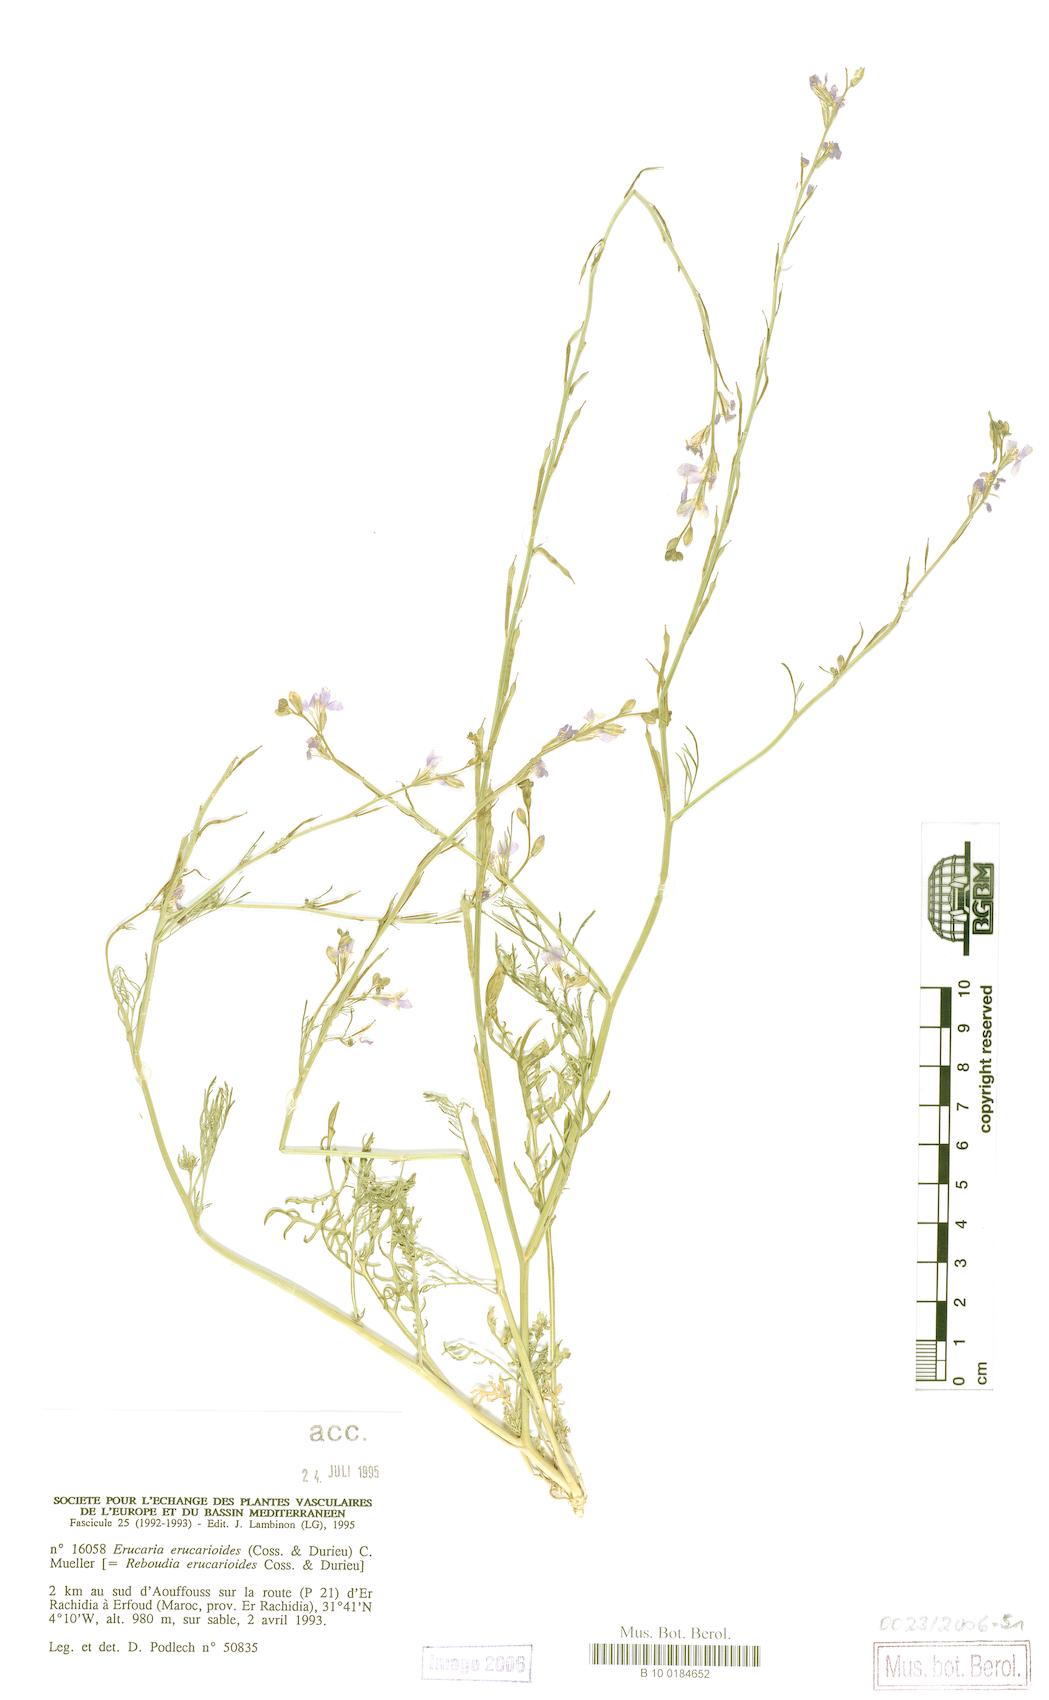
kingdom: Plantae
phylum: Tracheophyta
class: Magnoliopsida
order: Brassicales
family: Brassicaceae
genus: Erucaria
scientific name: Erucaria erucarioides
